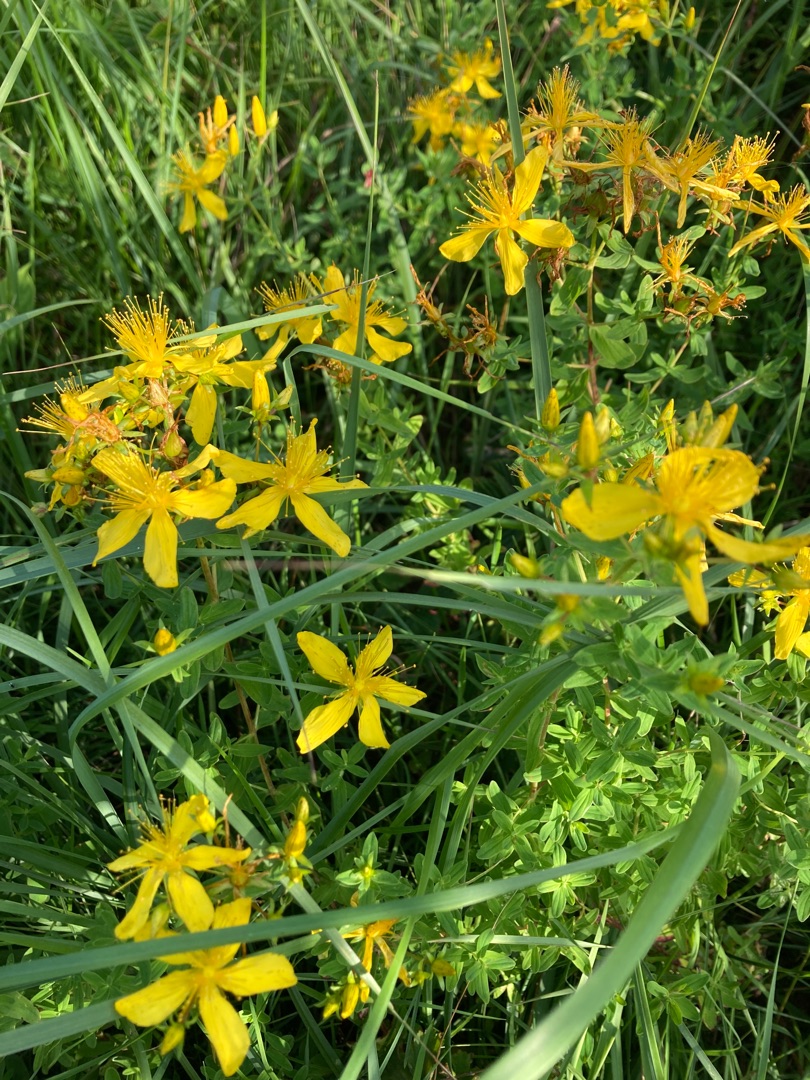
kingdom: Plantae
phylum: Tracheophyta
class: Magnoliopsida
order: Malpighiales
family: Hypericaceae
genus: Hypericum
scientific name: Hypericum perforatum
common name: Prikbladet perikon
